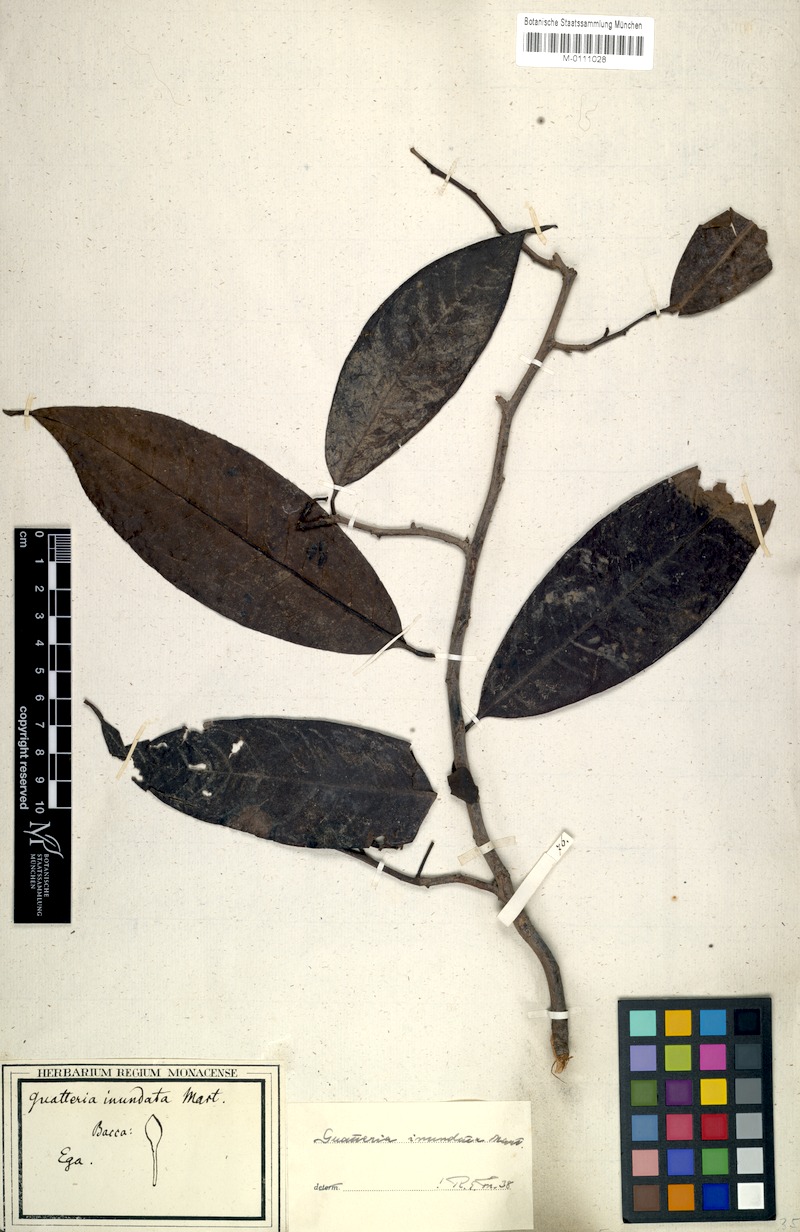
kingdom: Plantae
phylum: Tracheophyta
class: Magnoliopsida
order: Magnoliales
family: Annonaceae
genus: Guatteria
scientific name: Guatteria inundata
